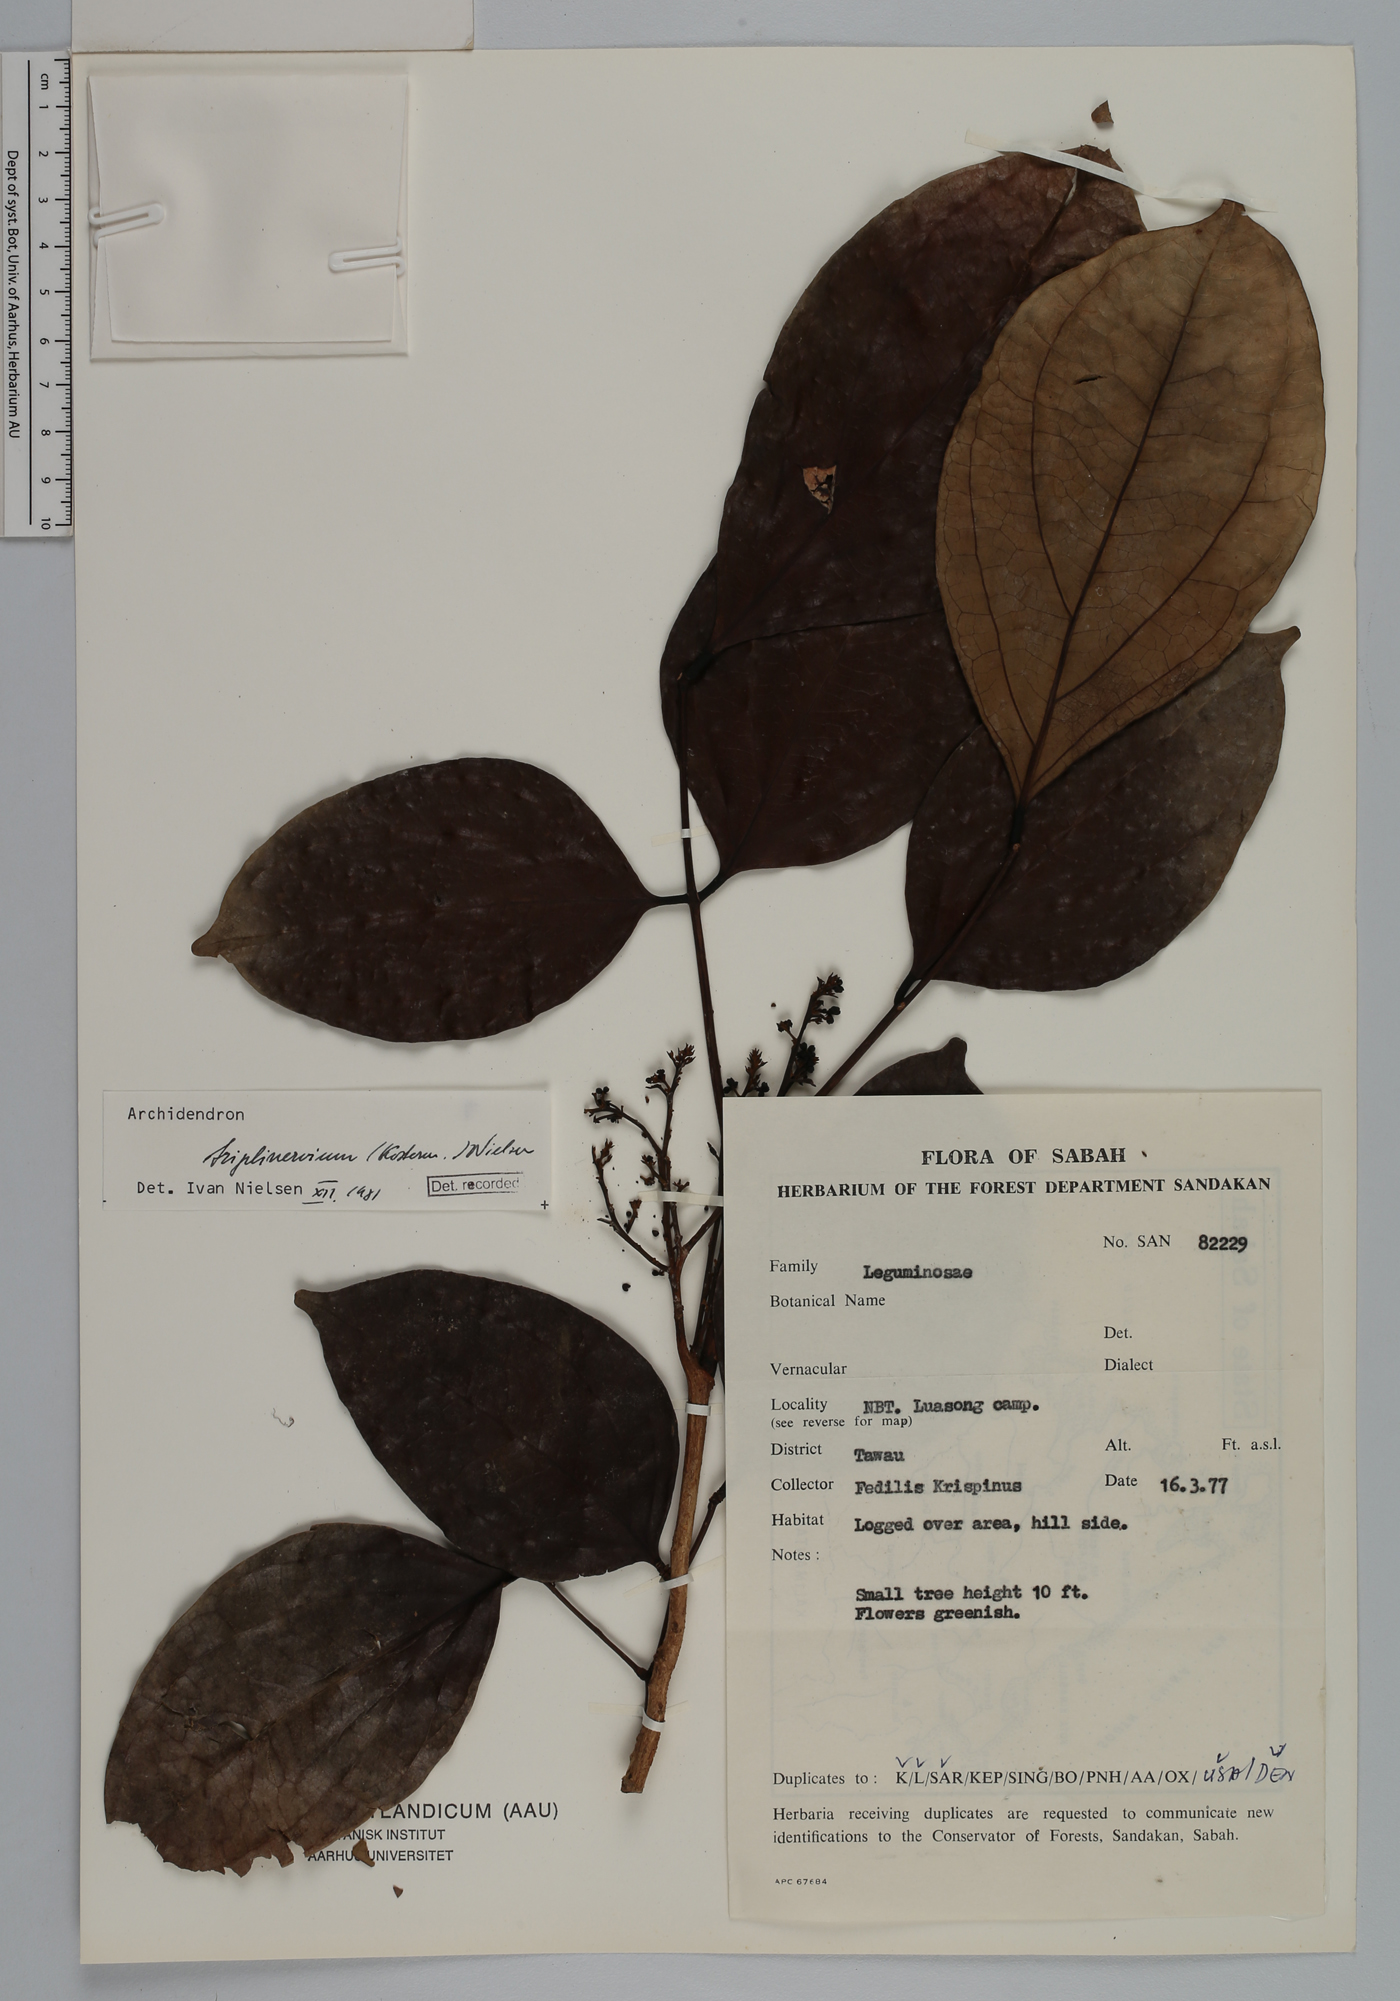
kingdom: Plantae
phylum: Tracheophyta
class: Magnoliopsida
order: Fabales
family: Fabaceae
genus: Archidendron
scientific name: Archidendron triplinervium
